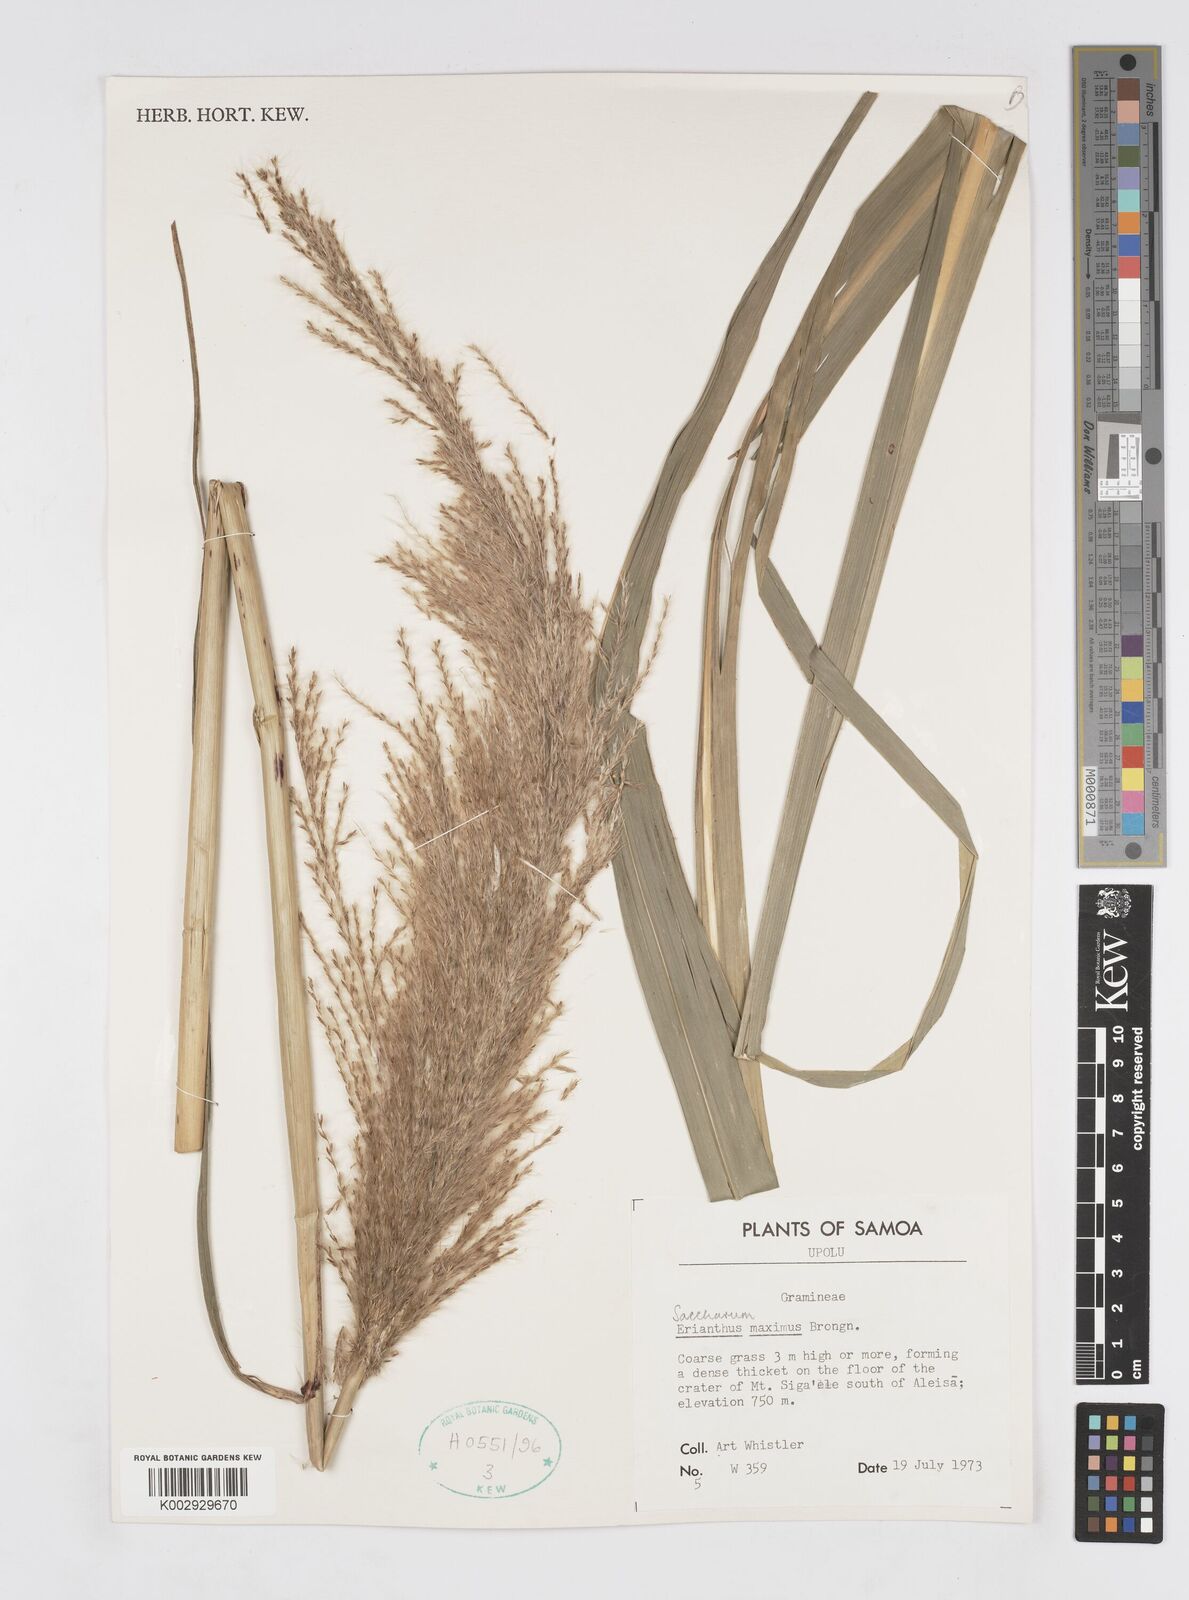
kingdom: Plantae
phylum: Tracheophyta
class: Liliopsida
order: Poales
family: Poaceae
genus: Saccharum
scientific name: Saccharum maximum
